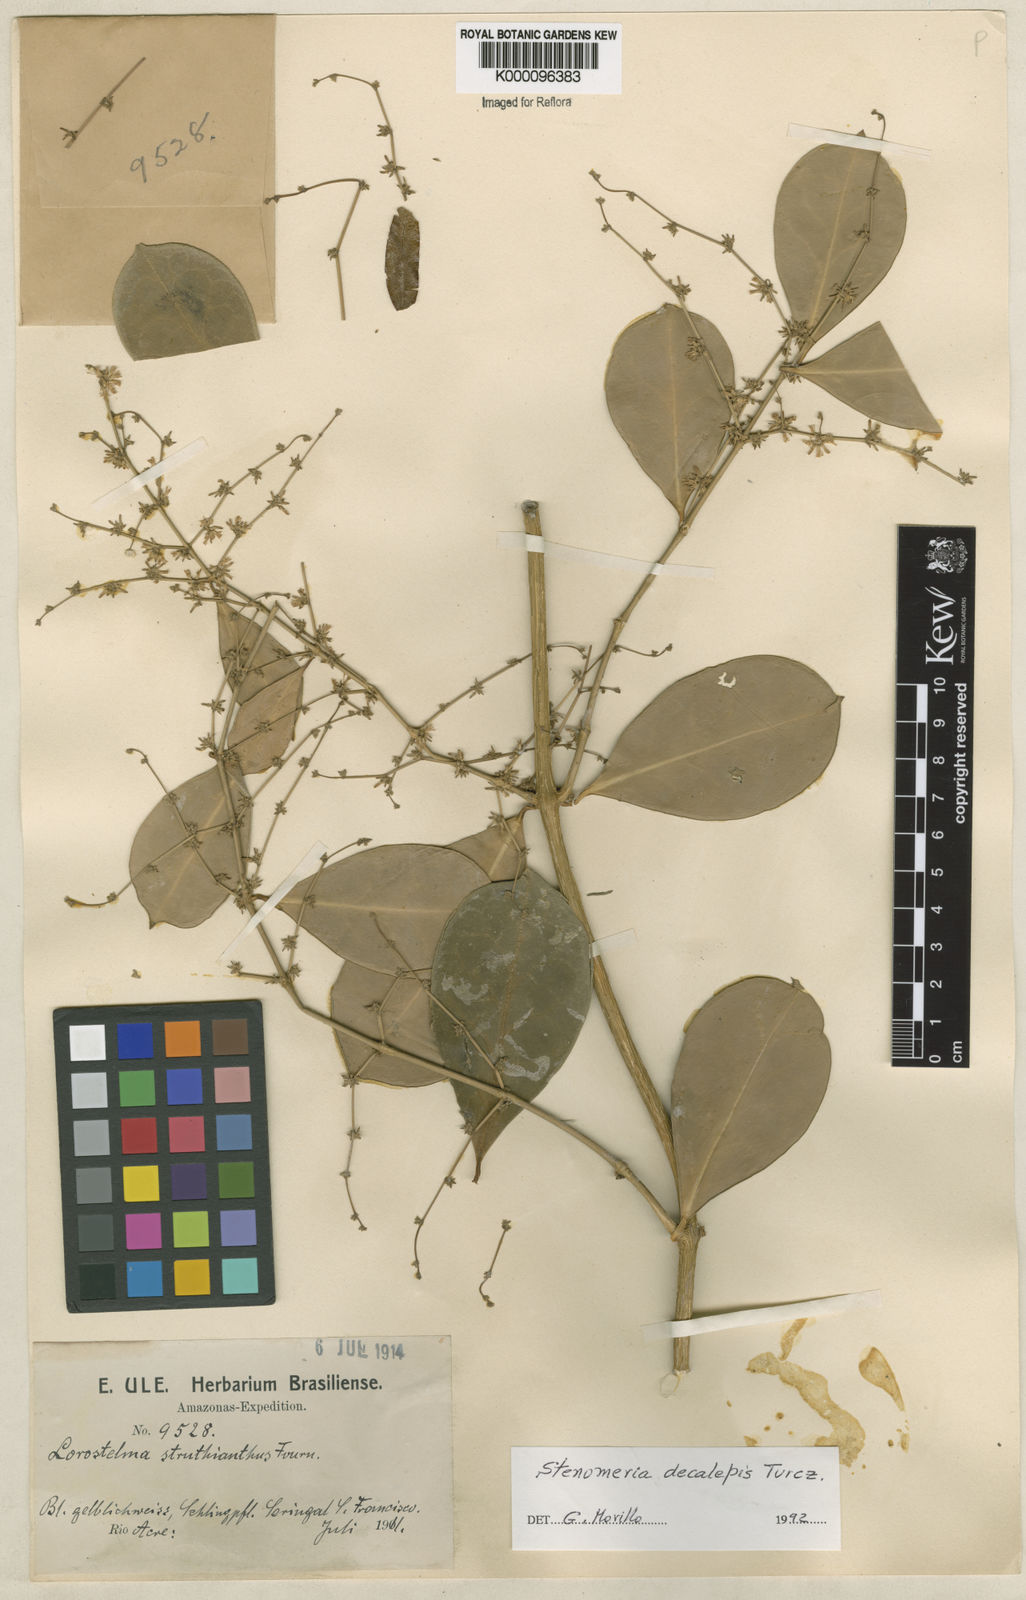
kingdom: Plantae
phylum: Tracheophyta
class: Magnoliopsida
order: Gentianales
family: Apocynaceae
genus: Tassadia
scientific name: Tassadia decalepis
